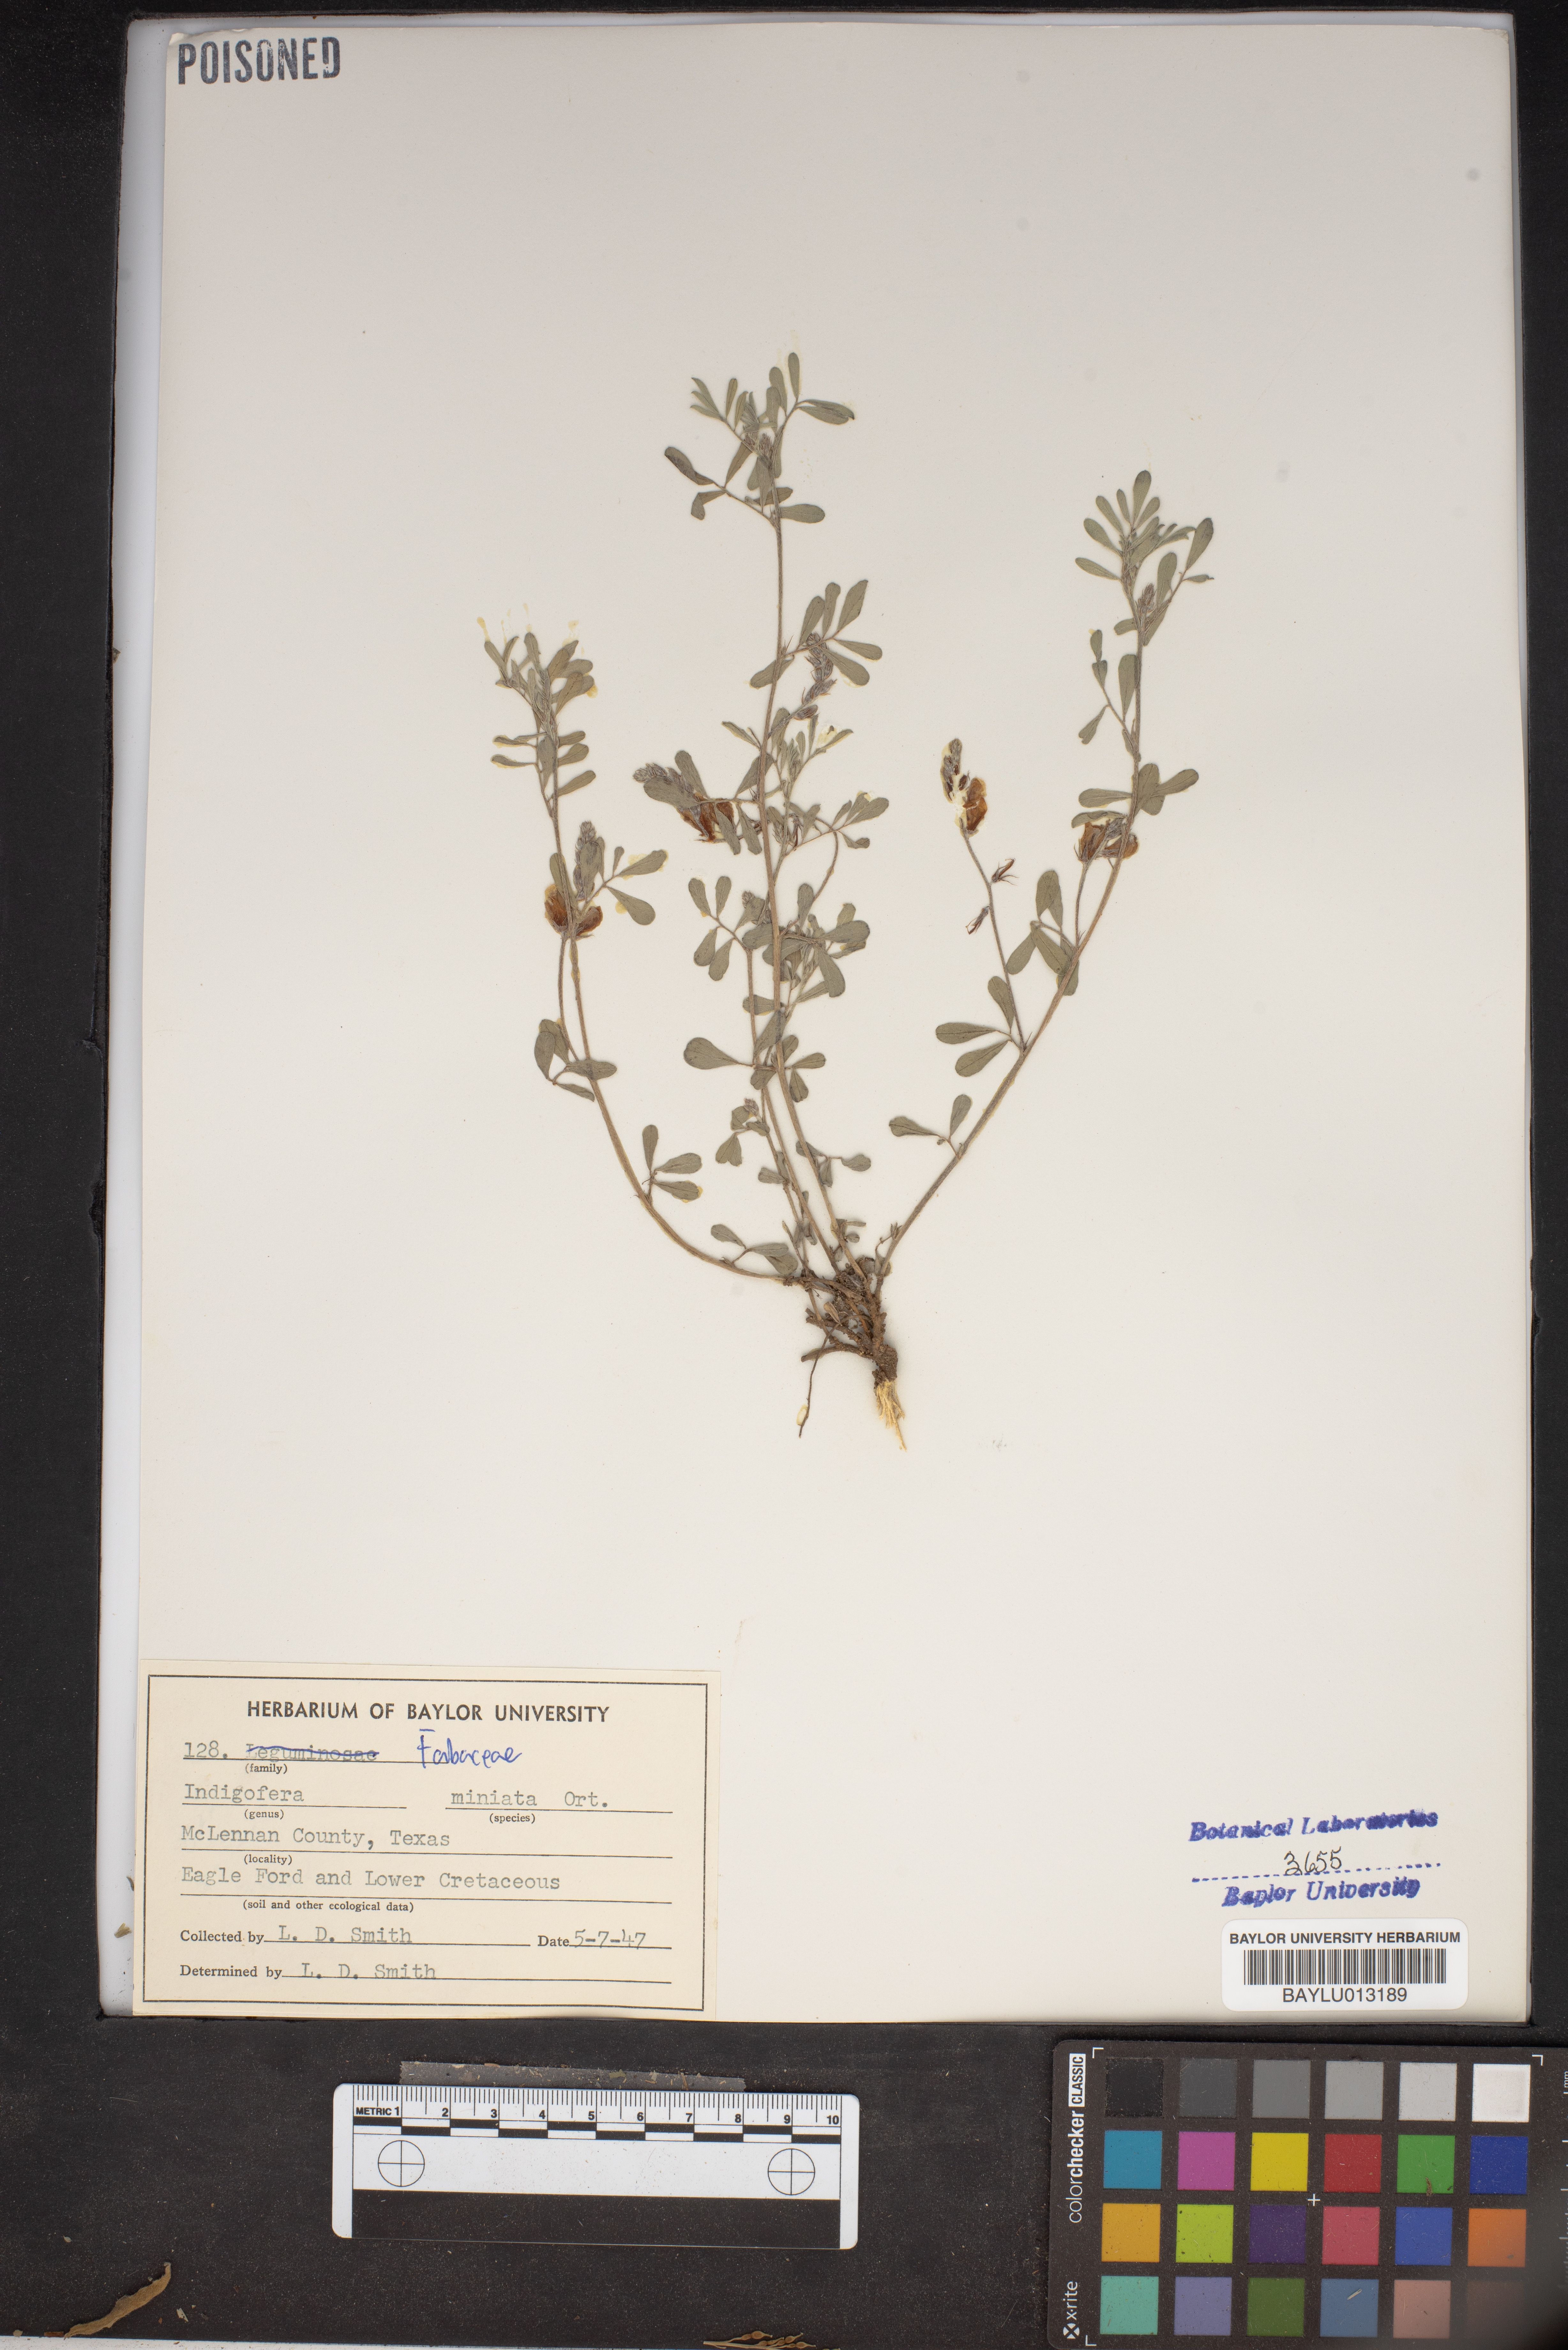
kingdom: Plantae
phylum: Tracheophyta
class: Magnoliopsida
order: Fabales
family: Fabaceae
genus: Indigofera
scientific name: Indigofera miniata
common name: Coast indigo
